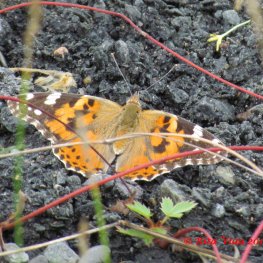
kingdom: Animalia
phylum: Arthropoda
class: Insecta
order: Lepidoptera
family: Nymphalidae
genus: Vanessa
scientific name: Vanessa cardui
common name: Painted Lady
